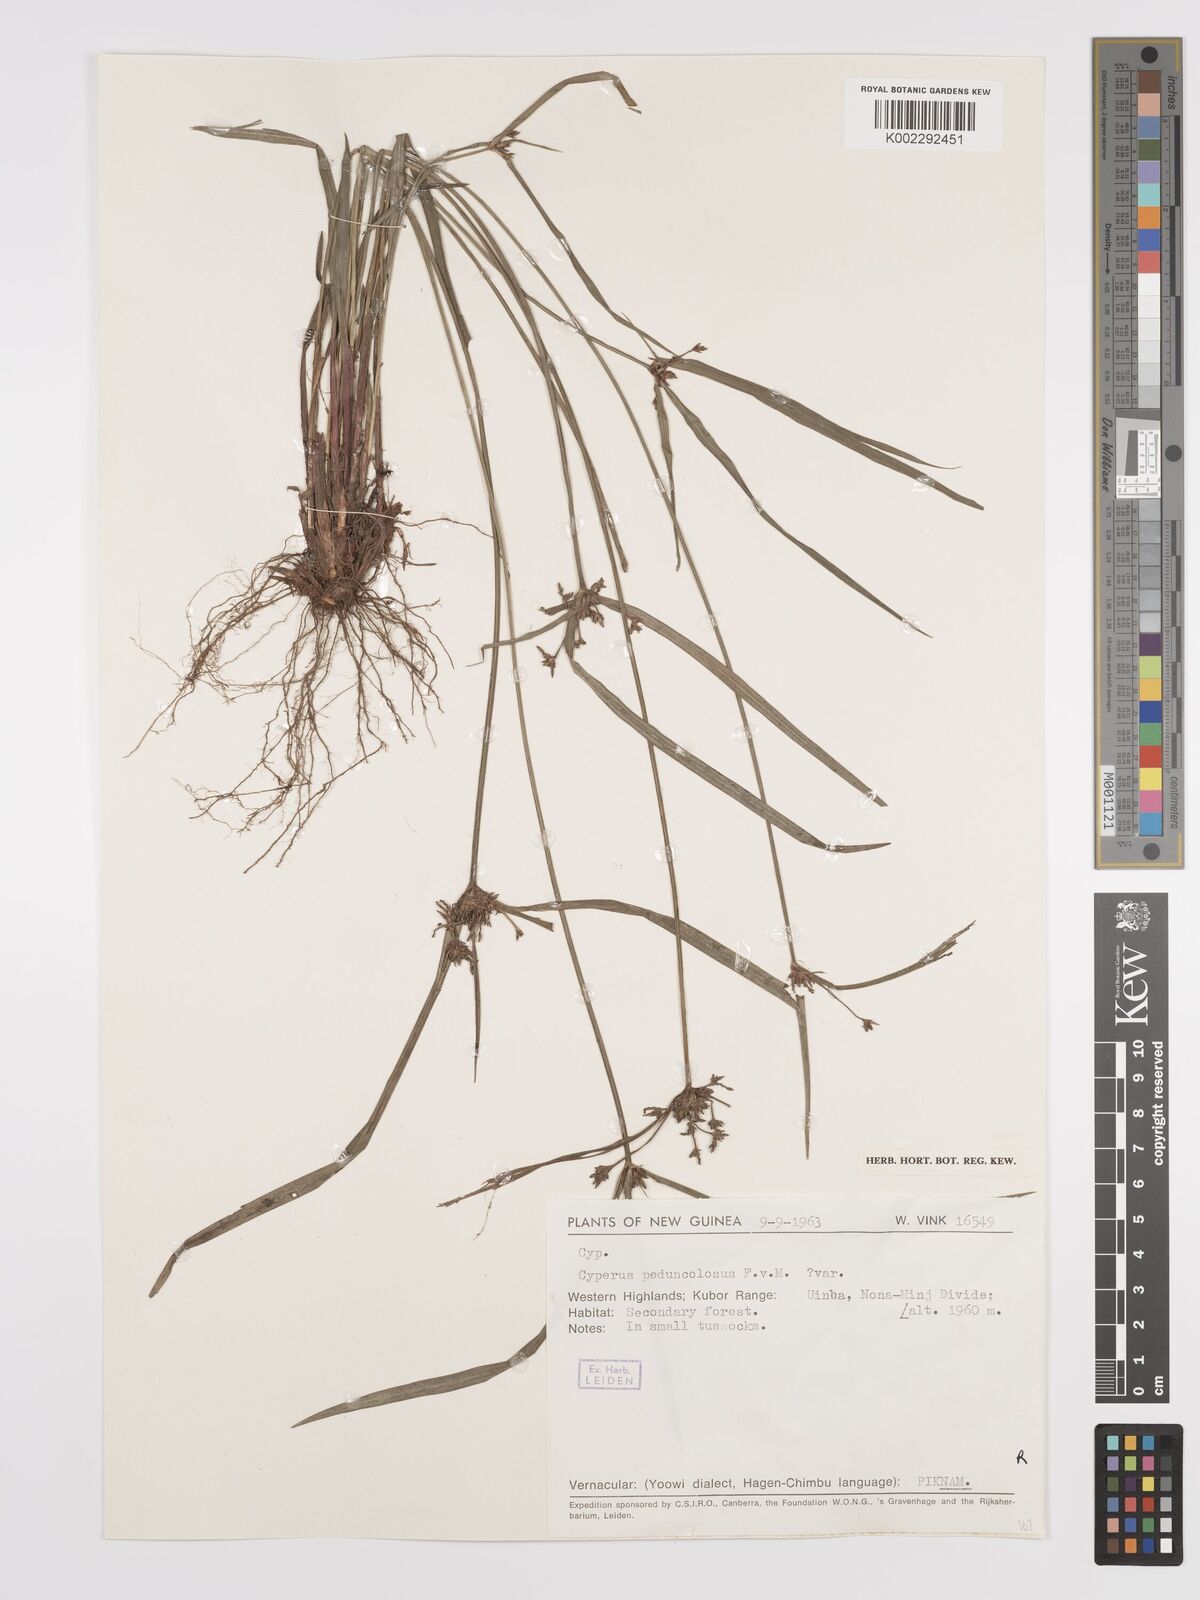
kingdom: Plantae
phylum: Tracheophyta
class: Liliopsida
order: Poales
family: Cyperaceae
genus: Cyperus
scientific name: Cyperus pedunculosus
